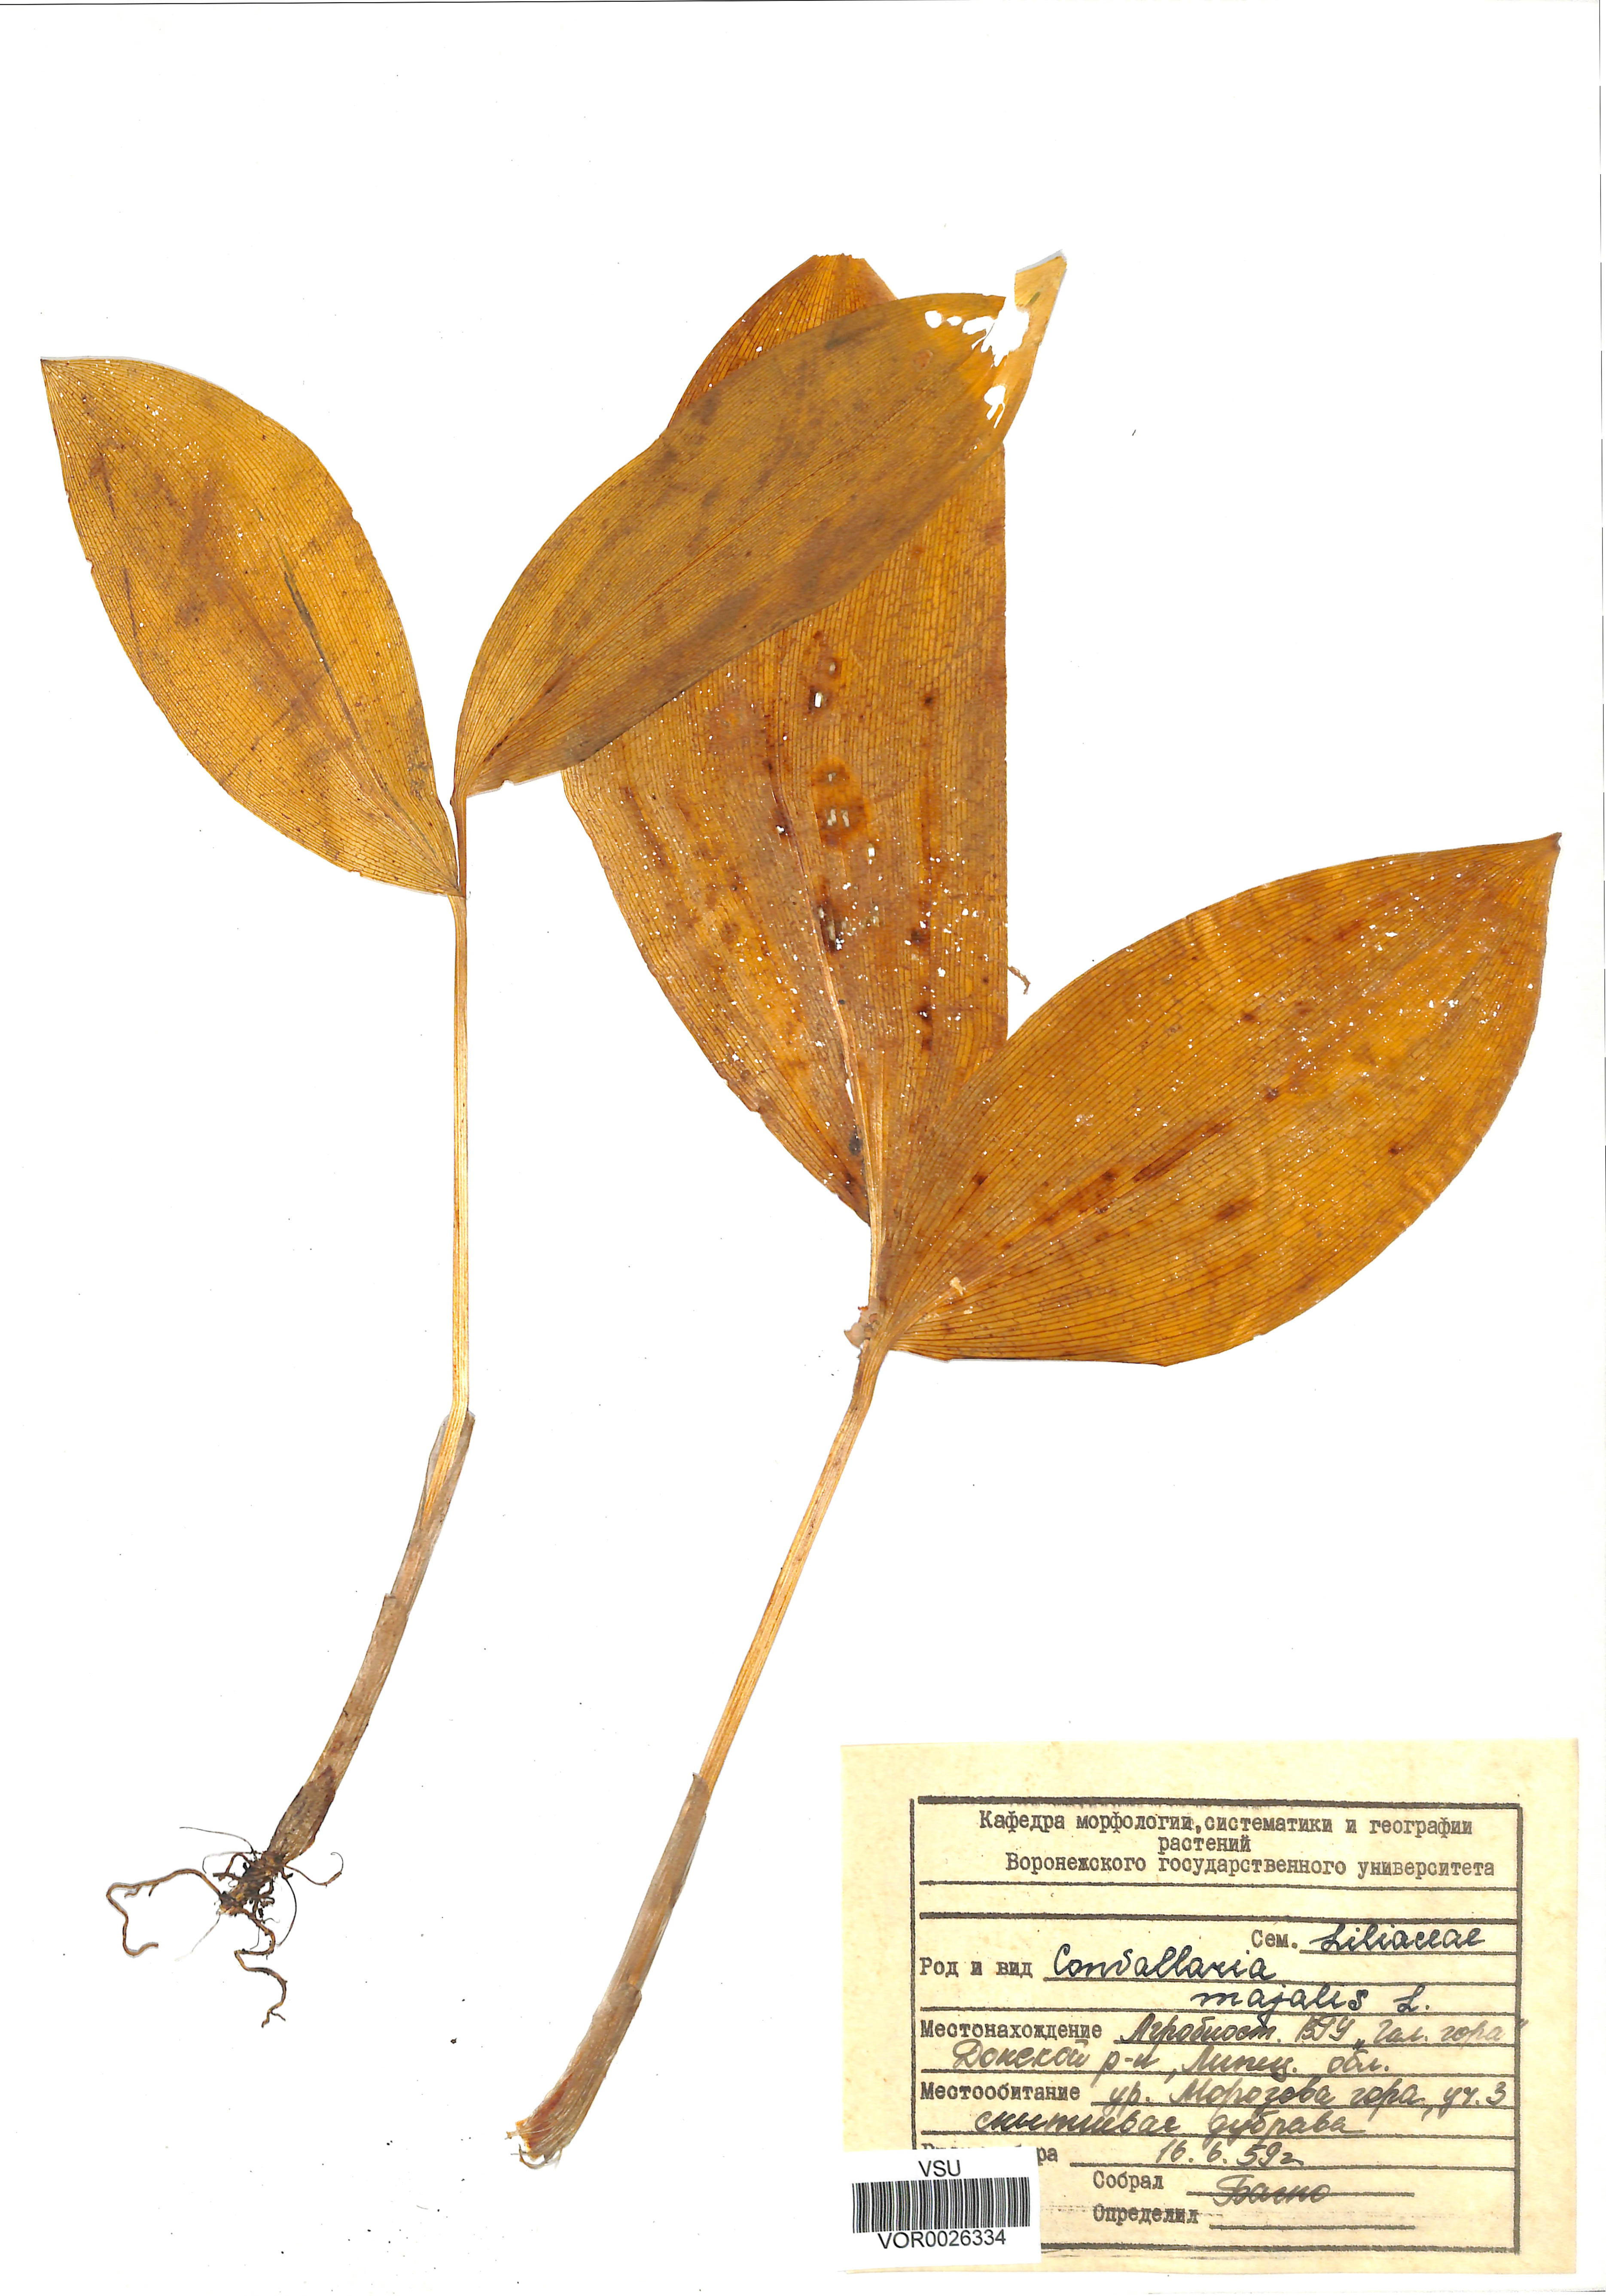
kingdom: Plantae
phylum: Tracheophyta
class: Liliopsida
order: Asparagales
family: Asparagaceae
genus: Convallaria
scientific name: Convallaria majalis
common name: Lily-of-the-valley
